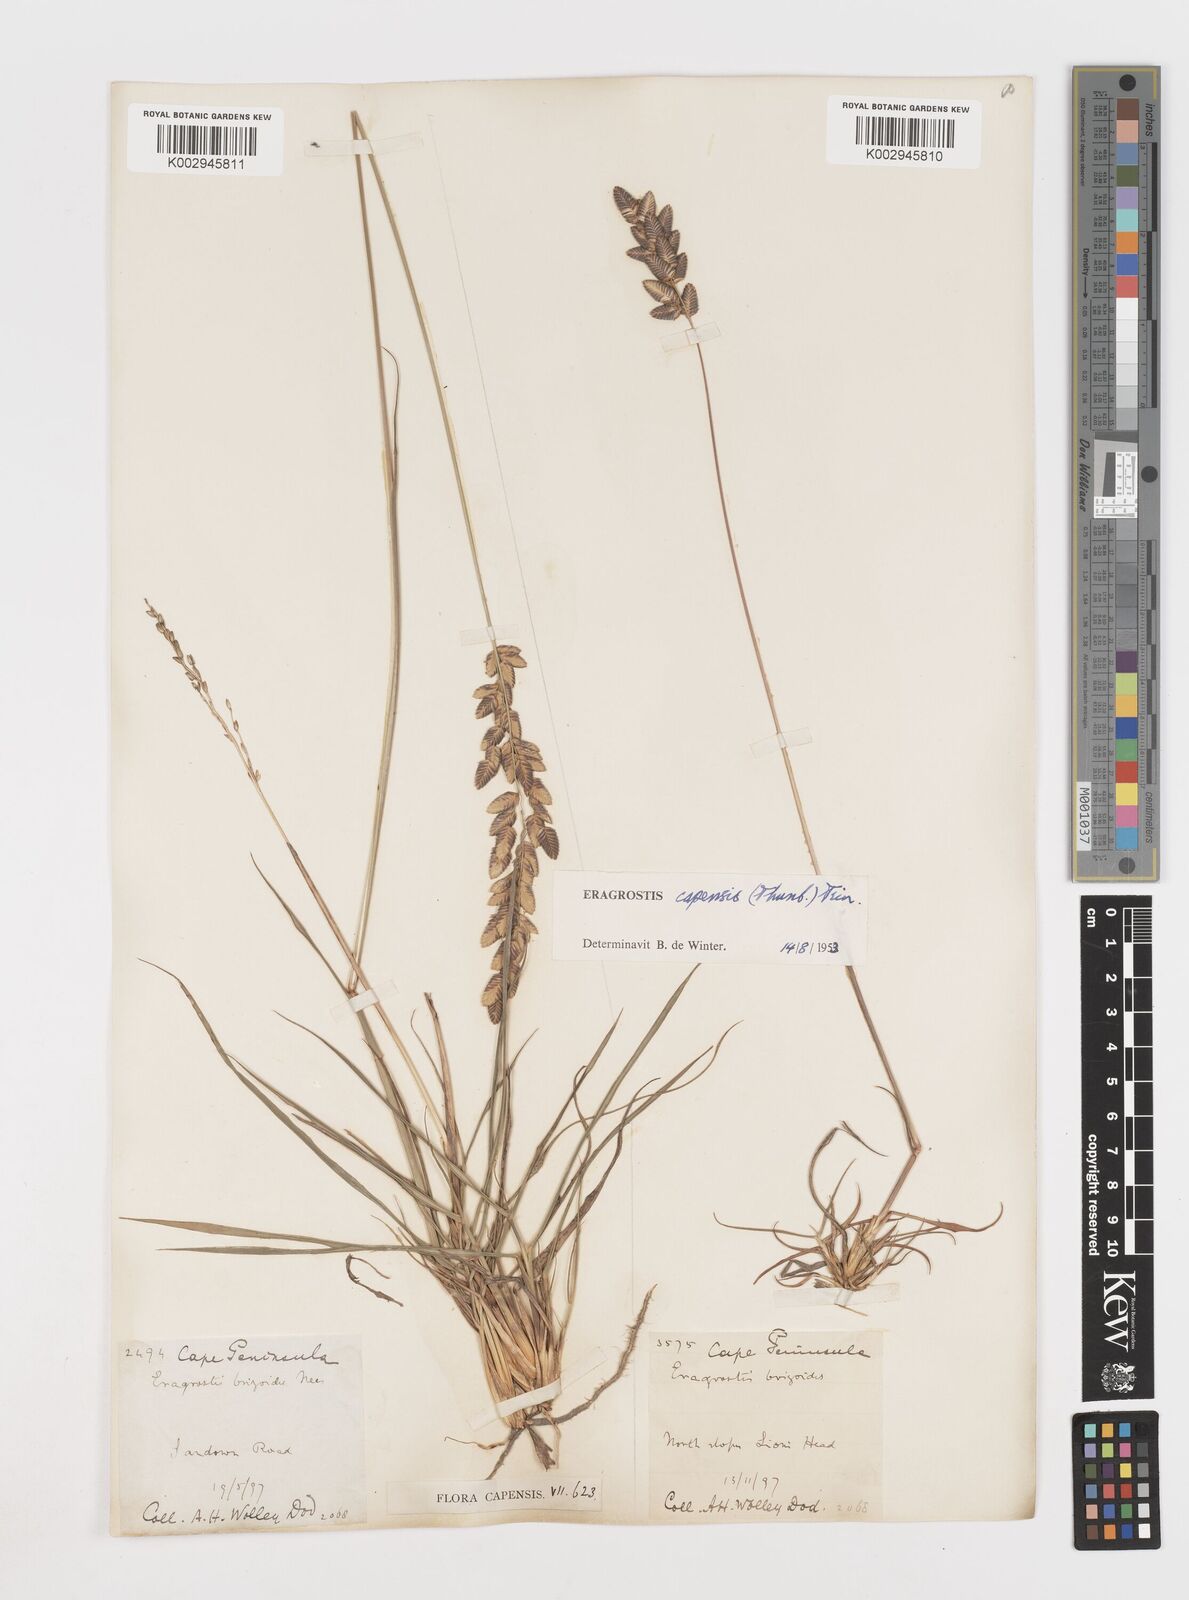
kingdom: Plantae
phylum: Tracheophyta
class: Liliopsida
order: Poales
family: Poaceae
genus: Eragrostis
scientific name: Eragrostis capensis
